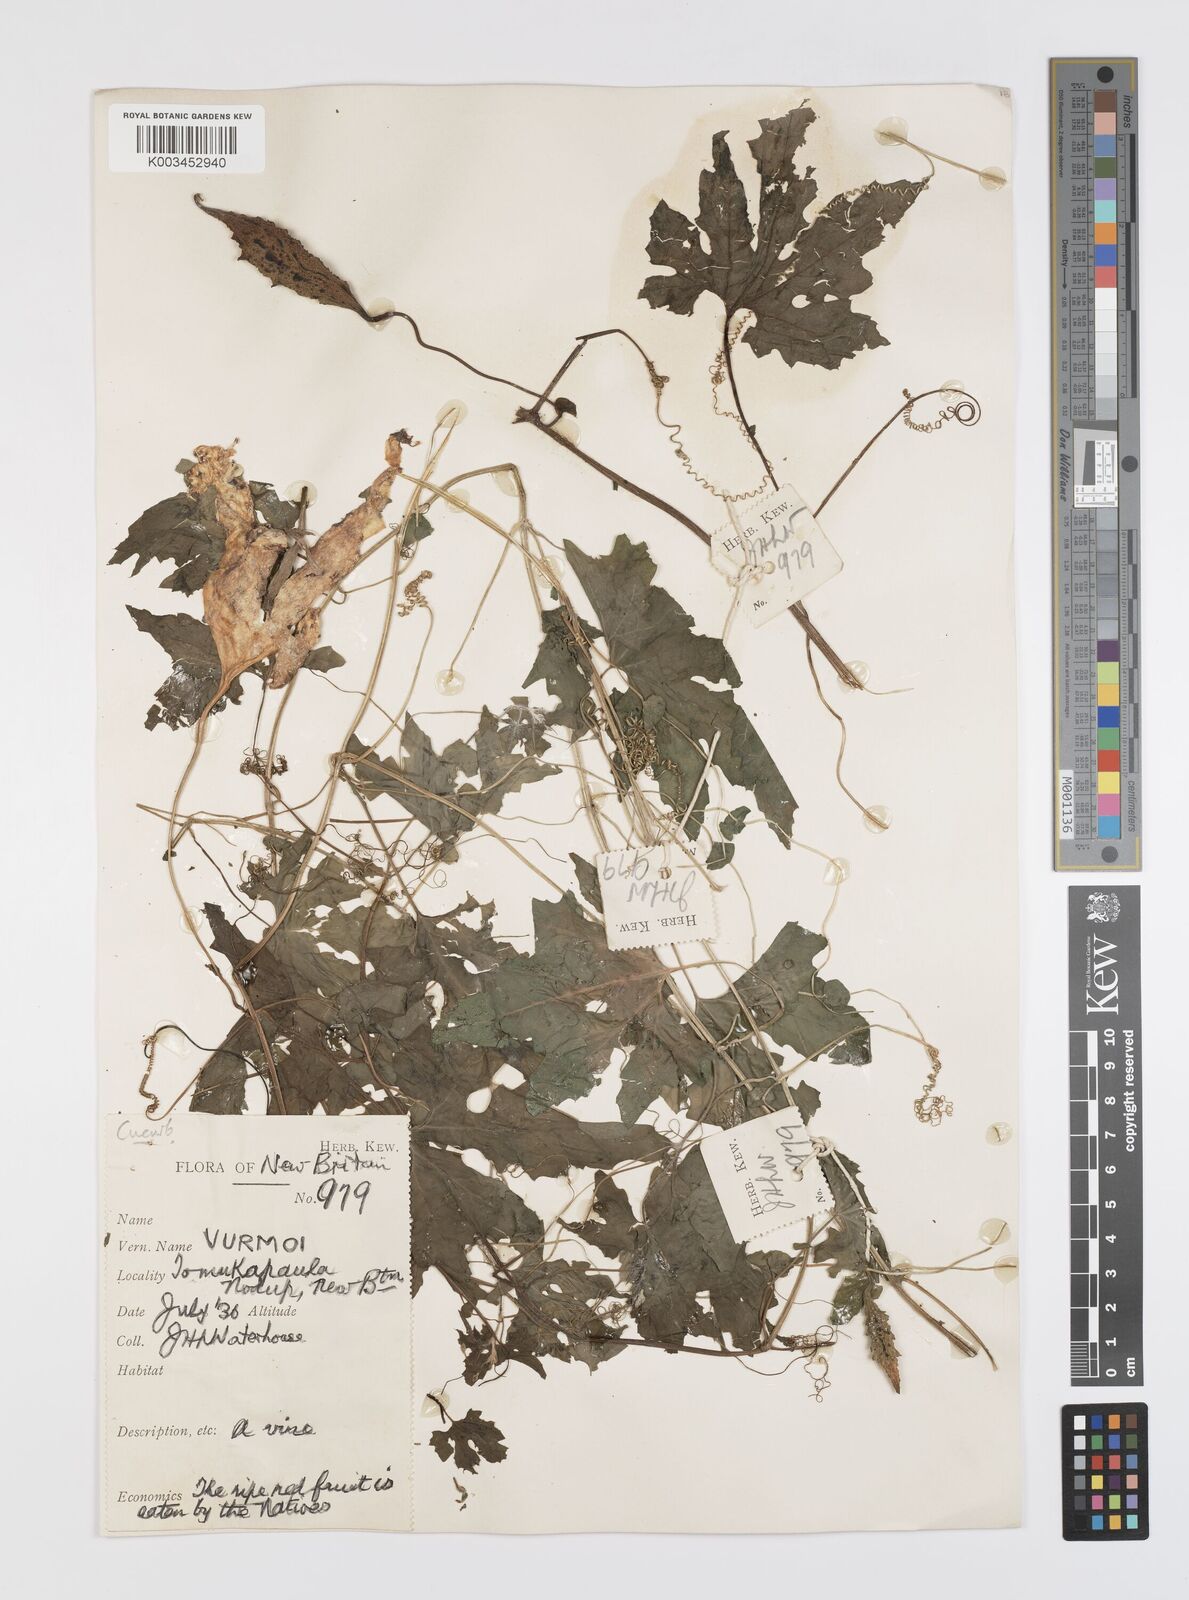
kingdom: Plantae
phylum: Tracheophyta
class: Magnoliopsida
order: Cucurbitales
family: Cucurbitaceae
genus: Momordica
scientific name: Momordica charantia
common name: Balsampear
